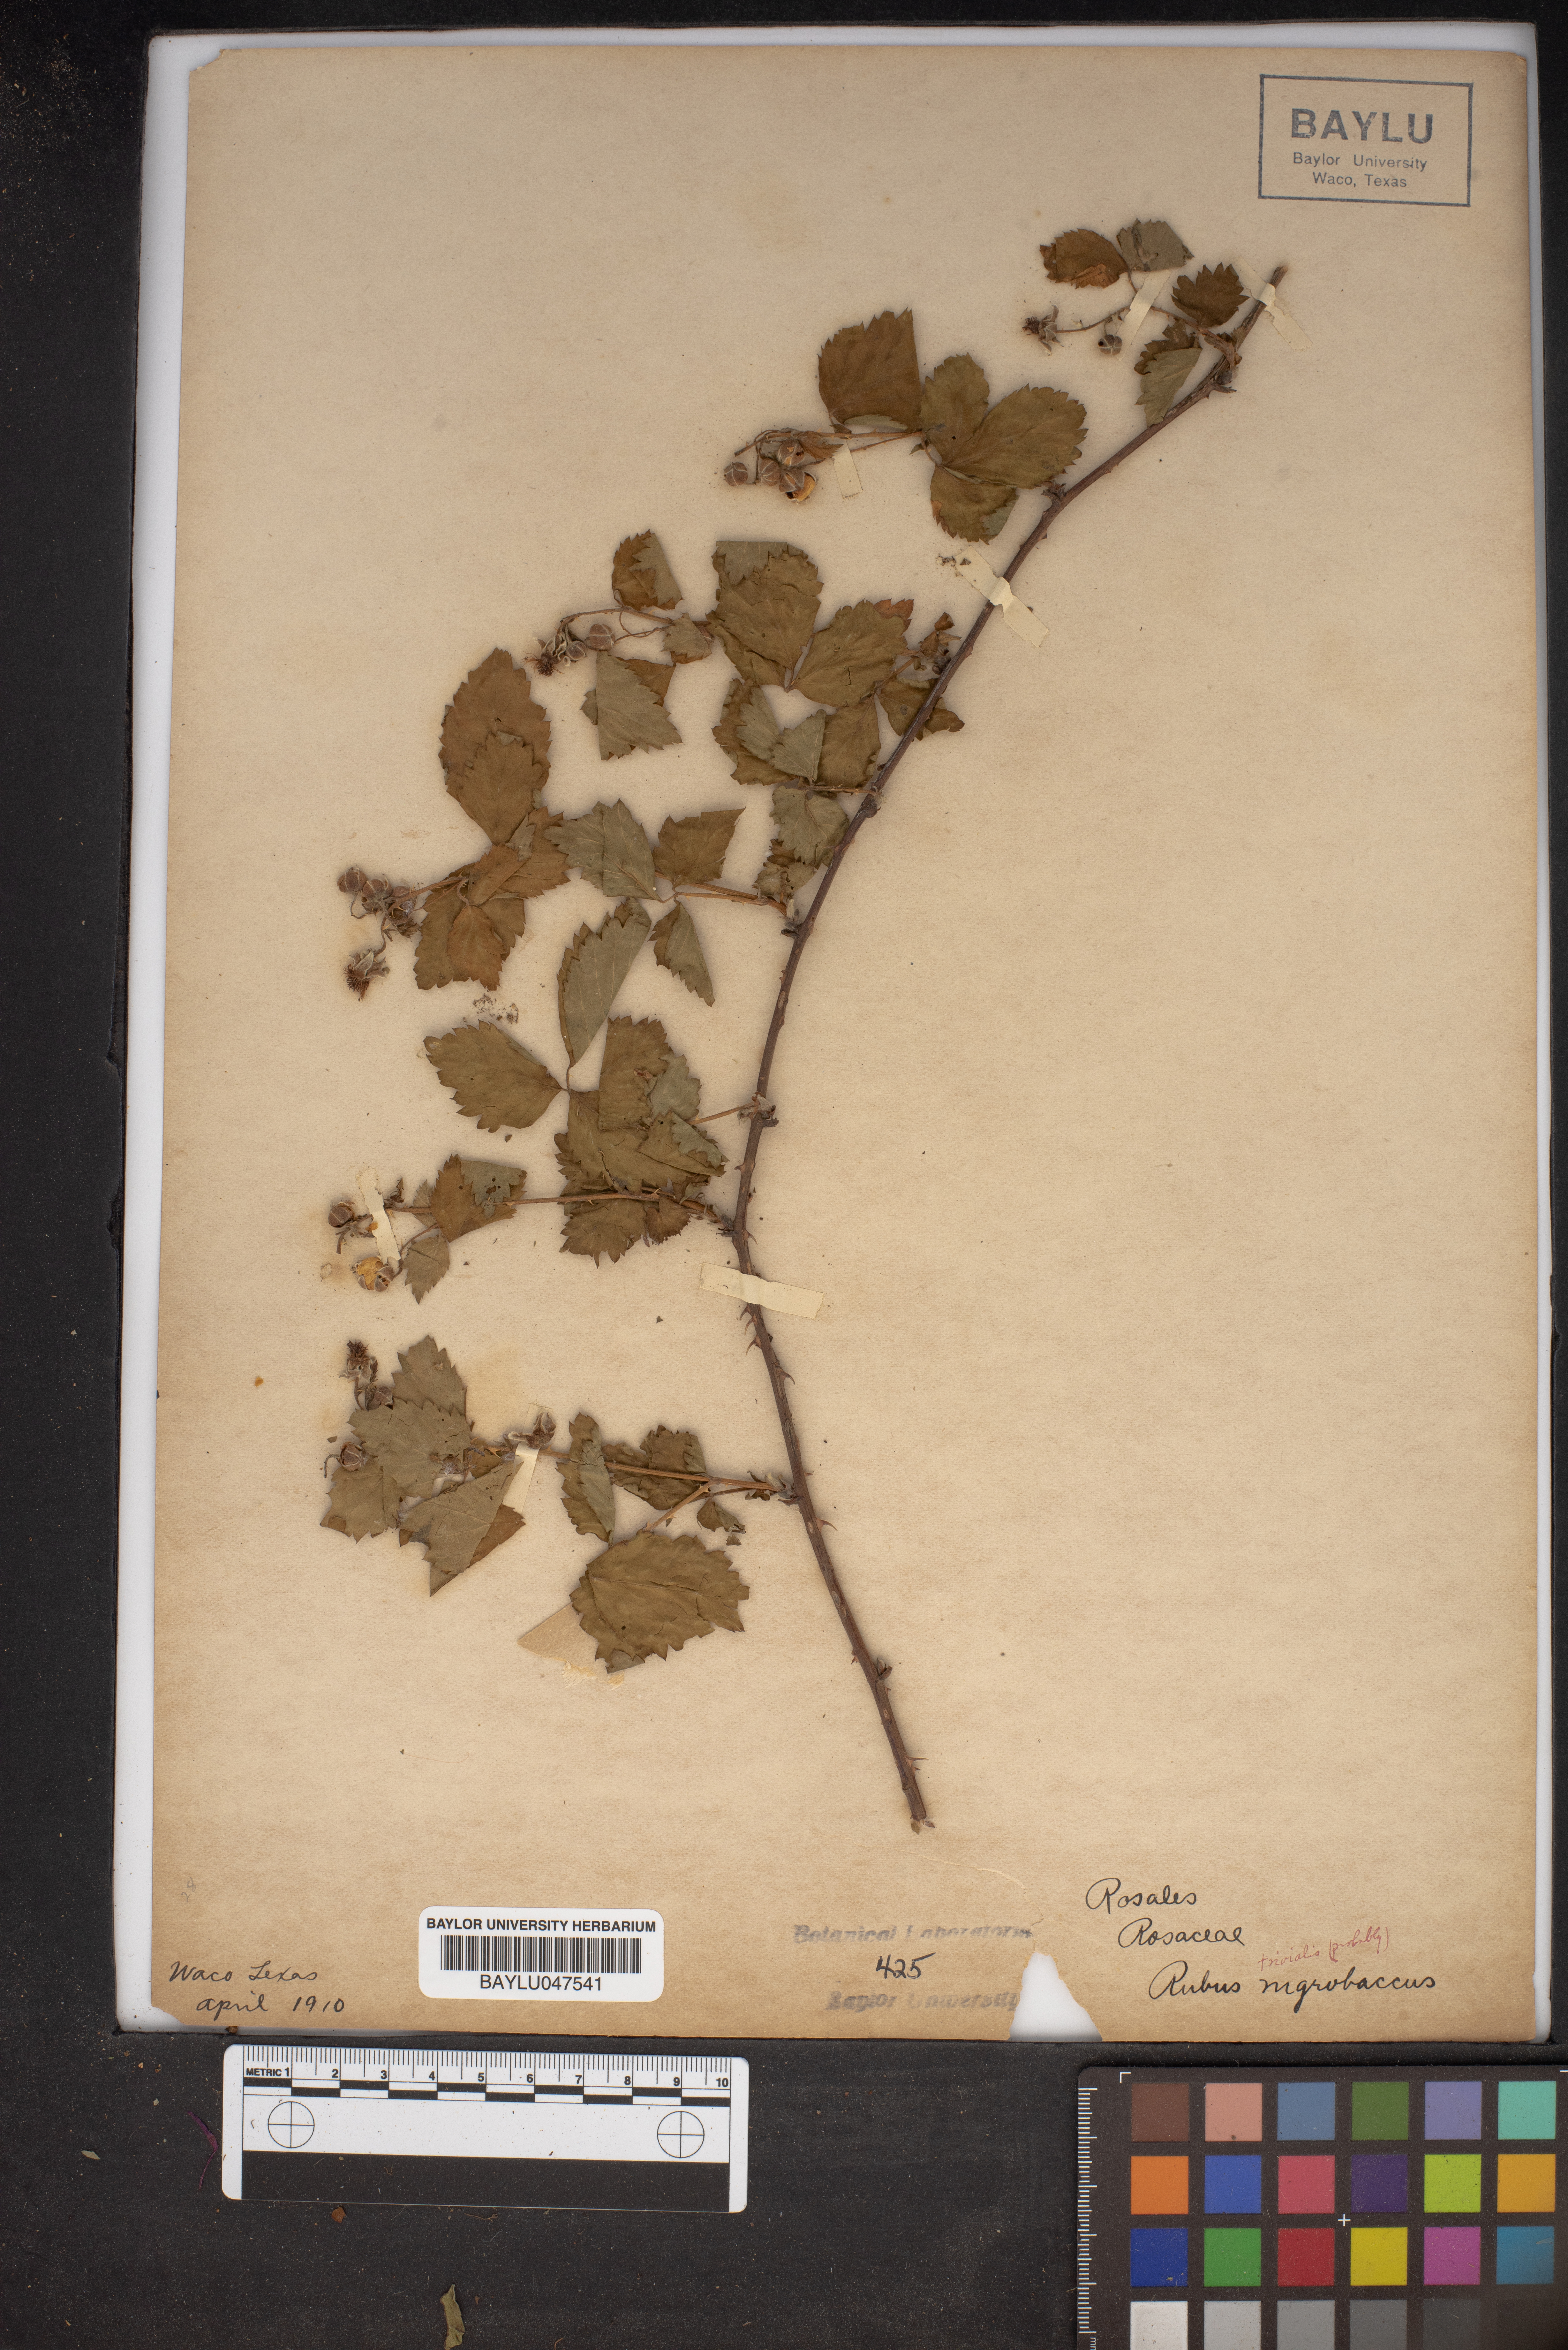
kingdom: Plantae
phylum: Tracheophyta
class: Magnoliopsida
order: Rosales
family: Rosaceae
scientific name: Rosaceae
